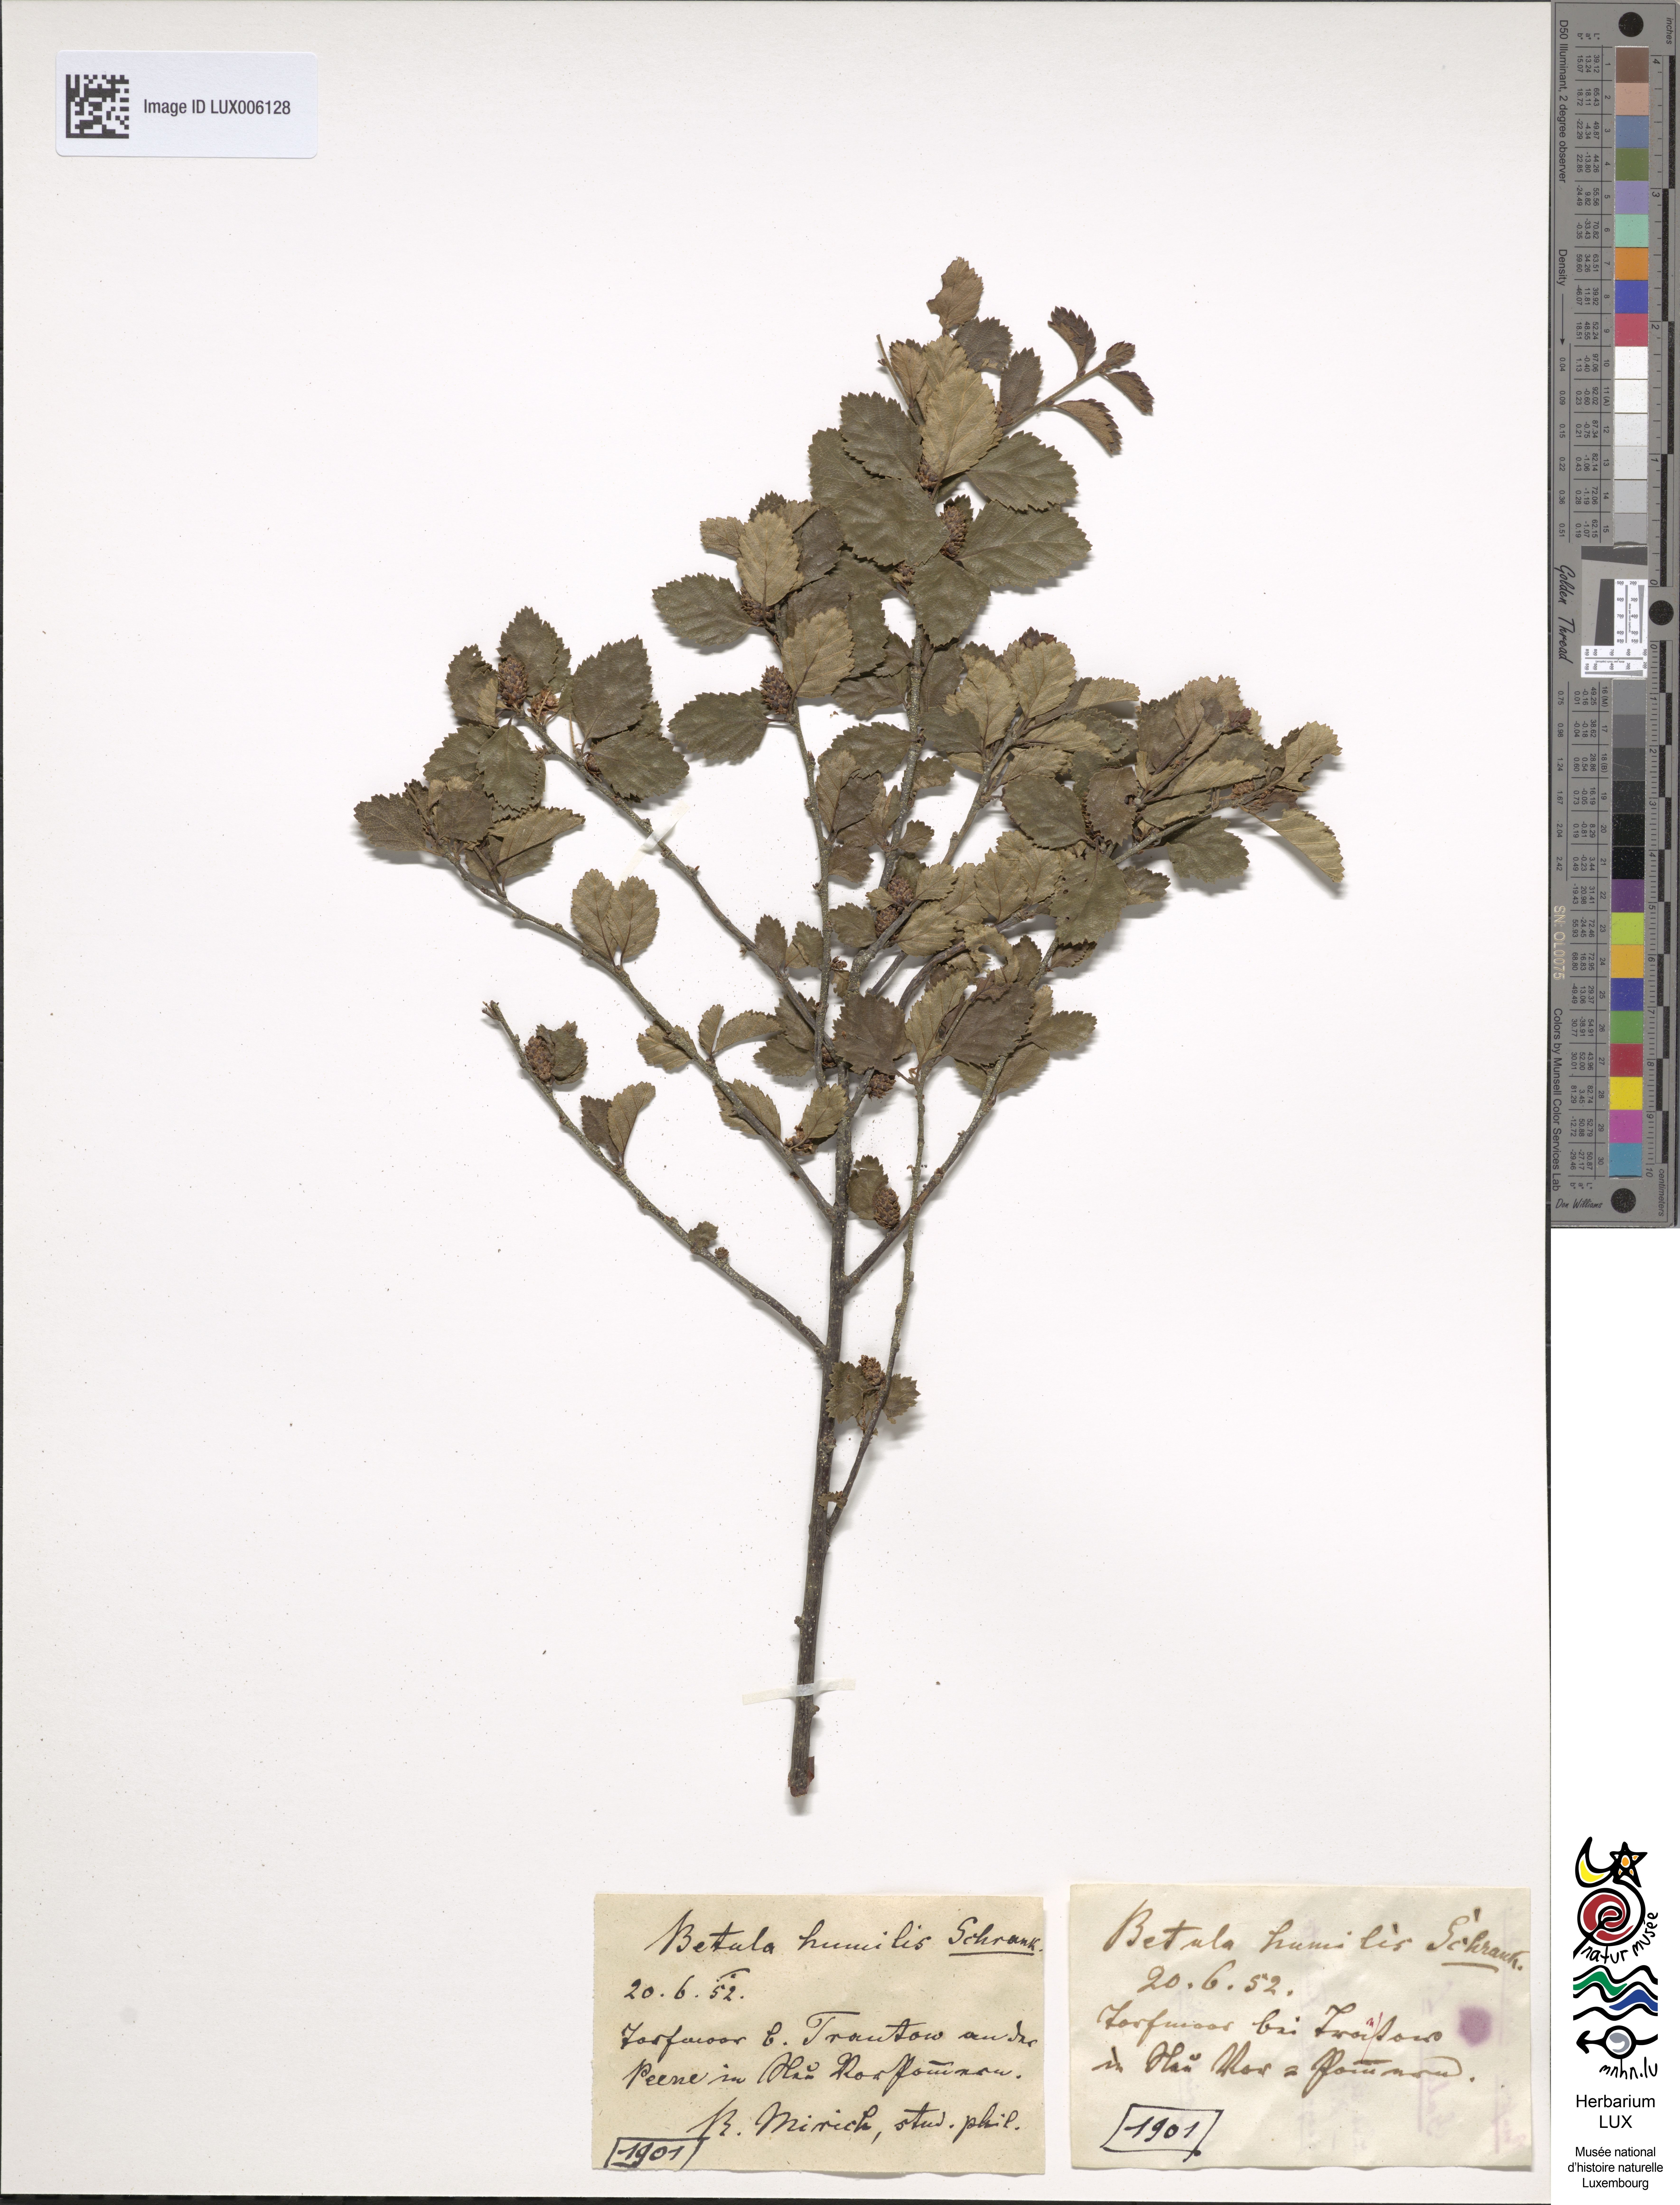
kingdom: Plantae
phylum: Tracheophyta
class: Magnoliopsida
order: Fagales
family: Betulaceae
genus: Betula
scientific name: Betula humilis
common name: Shrubby birch
